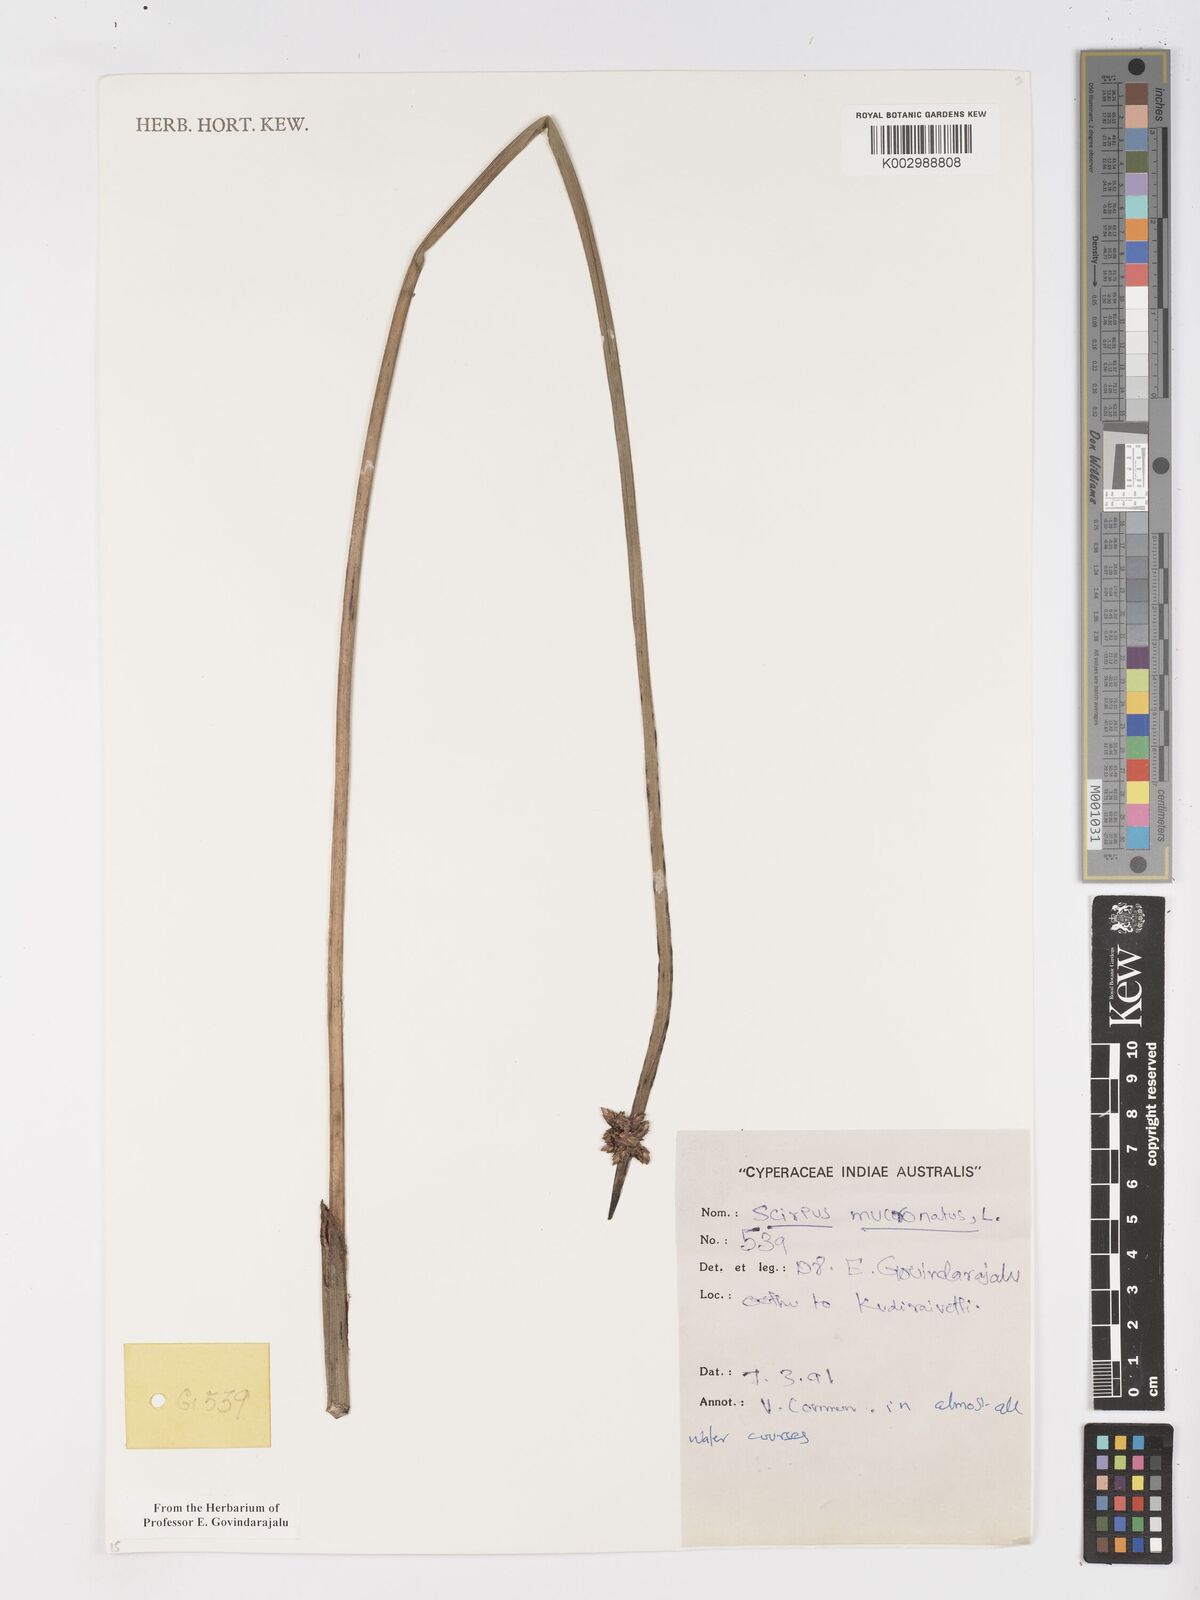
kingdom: Plantae
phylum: Tracheophyta
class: Liliopsida
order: Poales
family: Cyperaceae
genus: Schoenoplectiella
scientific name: Schoenoplectiella mucronata
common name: Bog bulrush
